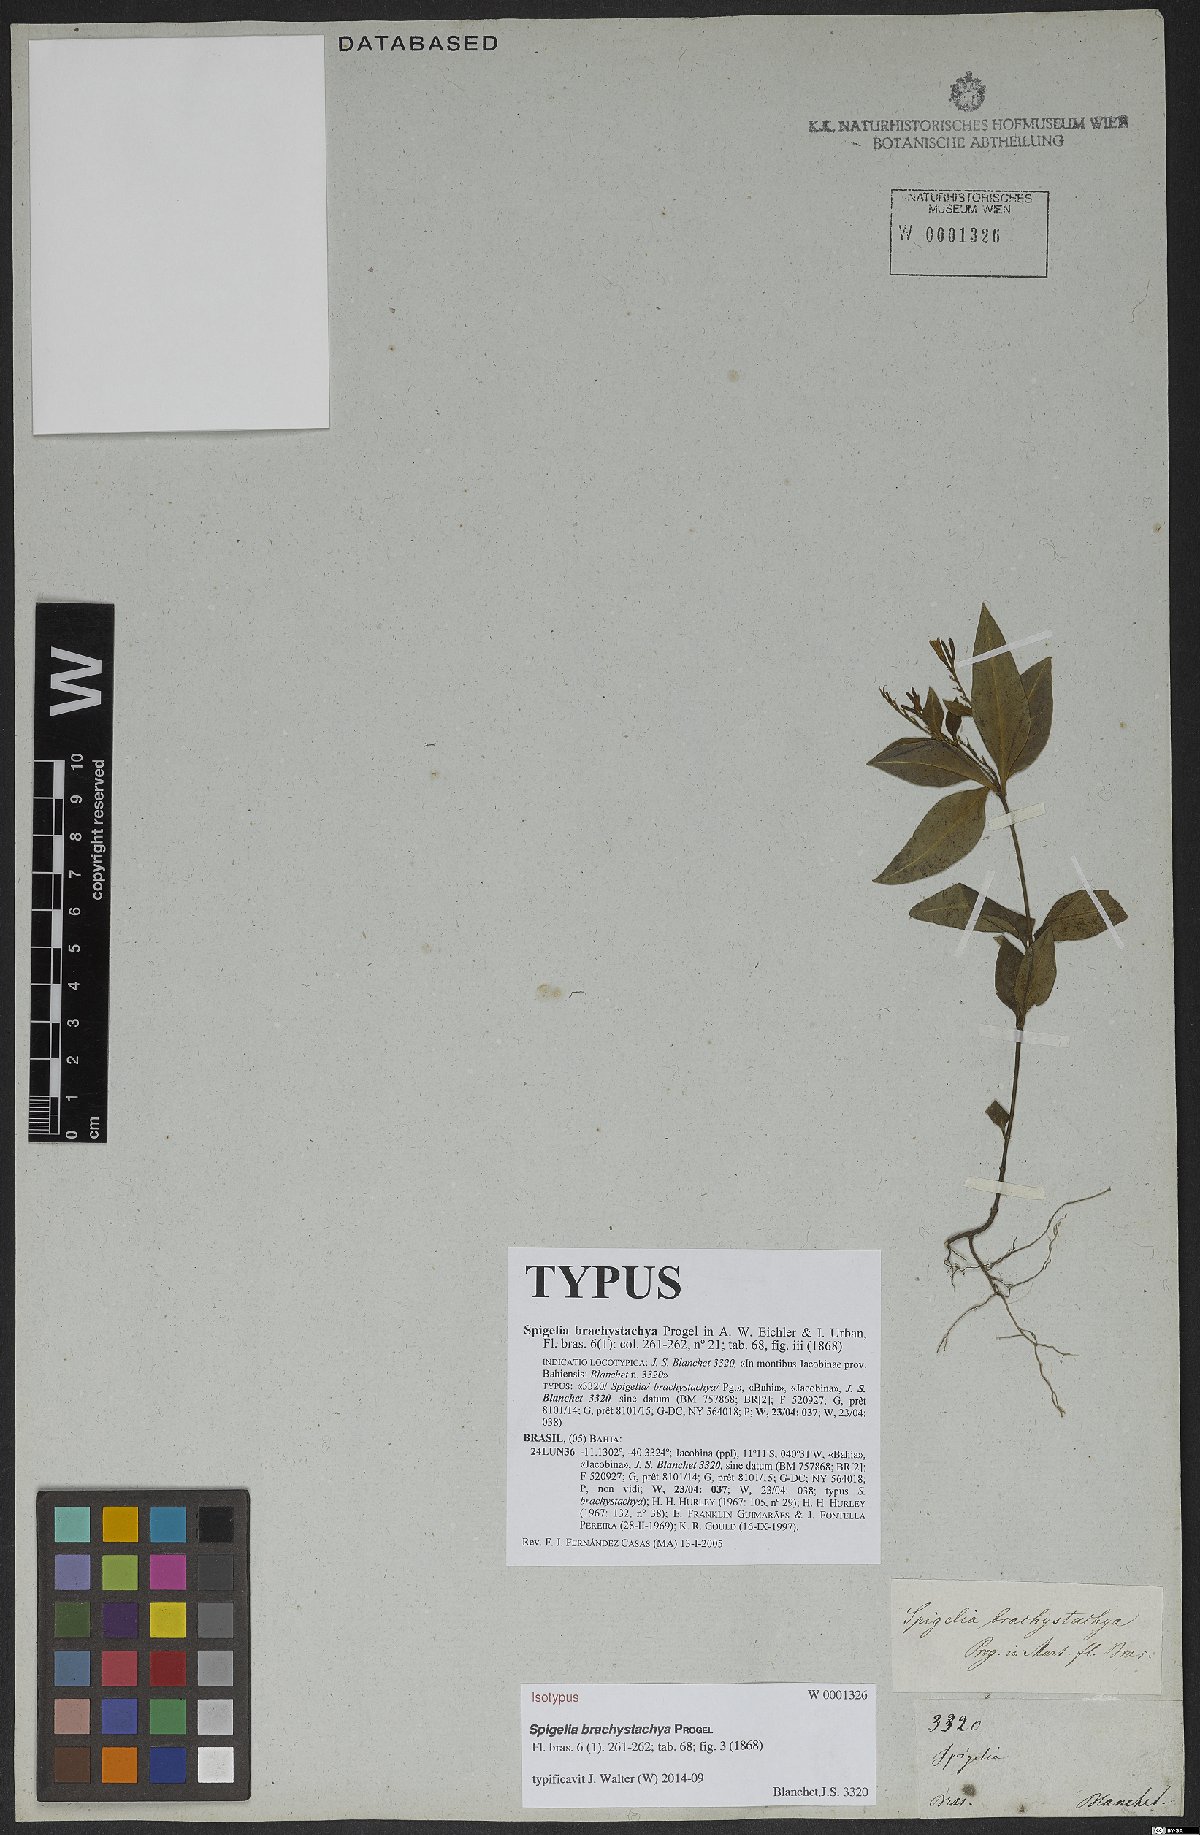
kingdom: Plantae
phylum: Tracheophyta
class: Magnoliopsida
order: Gentianales
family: Loganiaceae
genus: Spigelia
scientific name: Spigelia brachystachya
